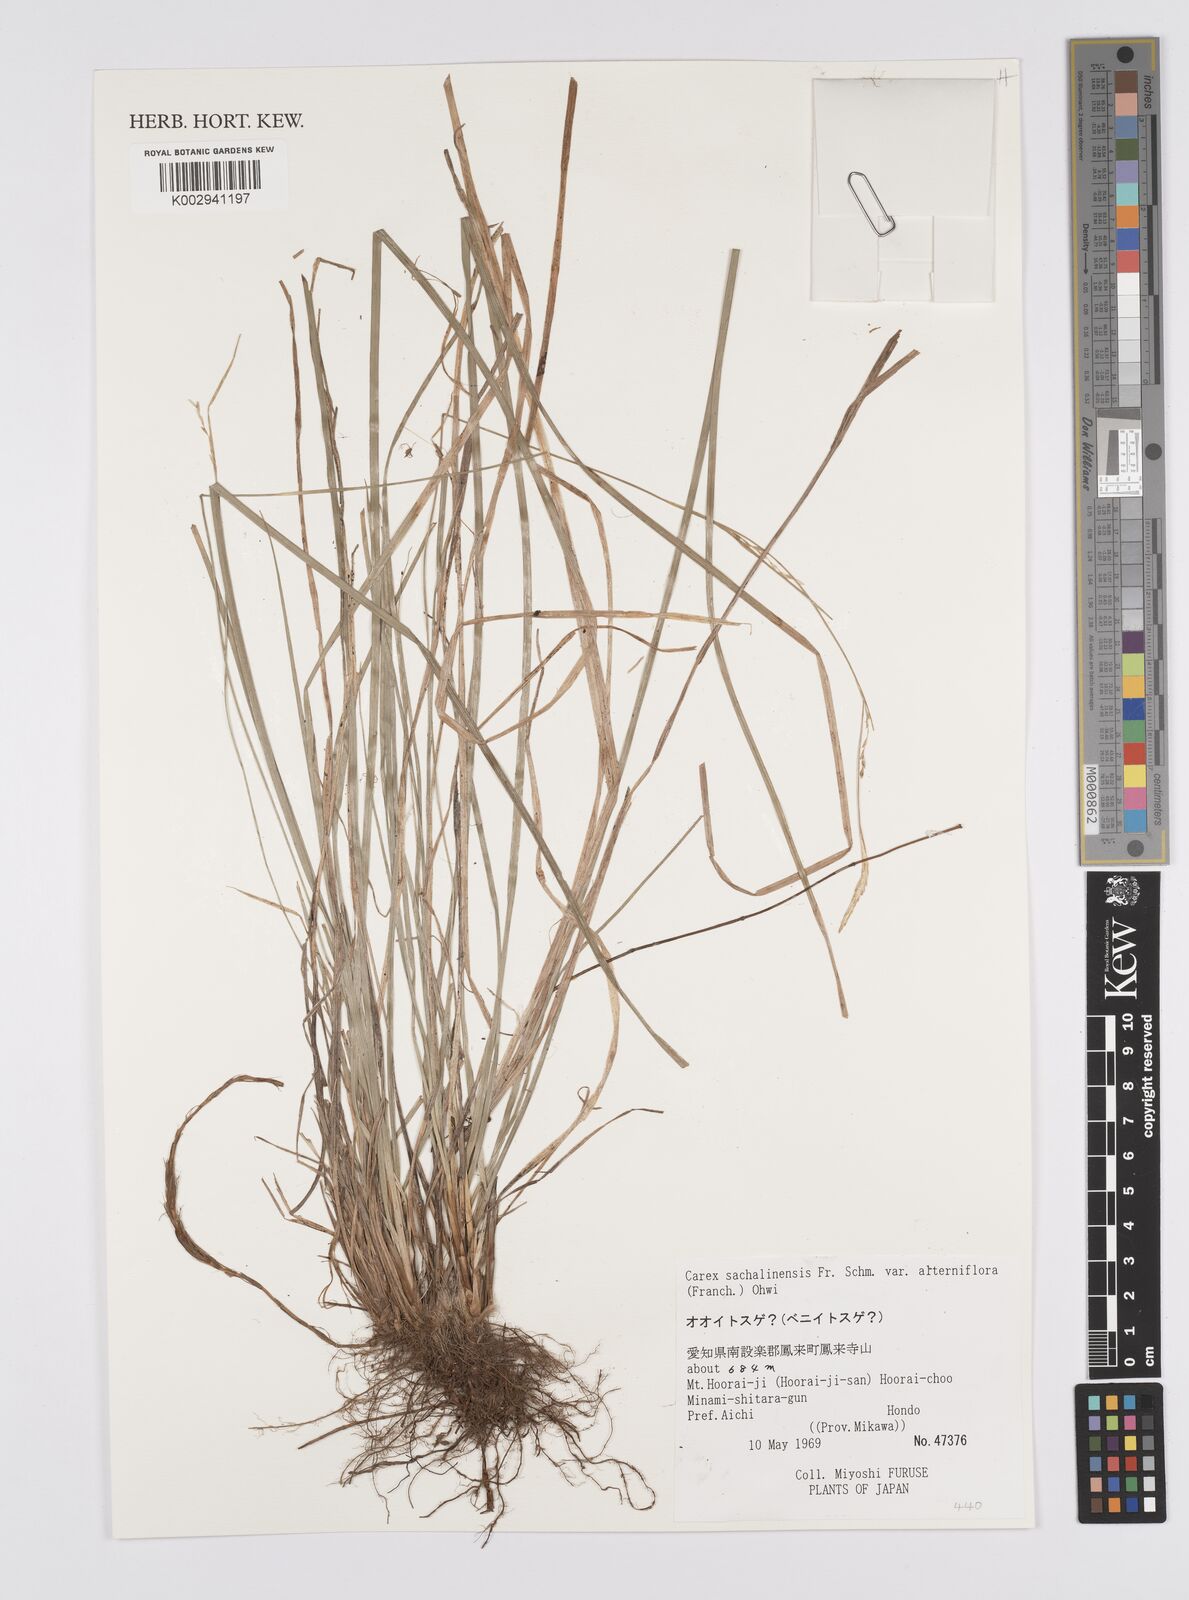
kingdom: Plantae
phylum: Tracheophyta
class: Liliopsida
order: Poales
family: Cyperaceae
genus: Carex
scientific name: Carex pisiformis
